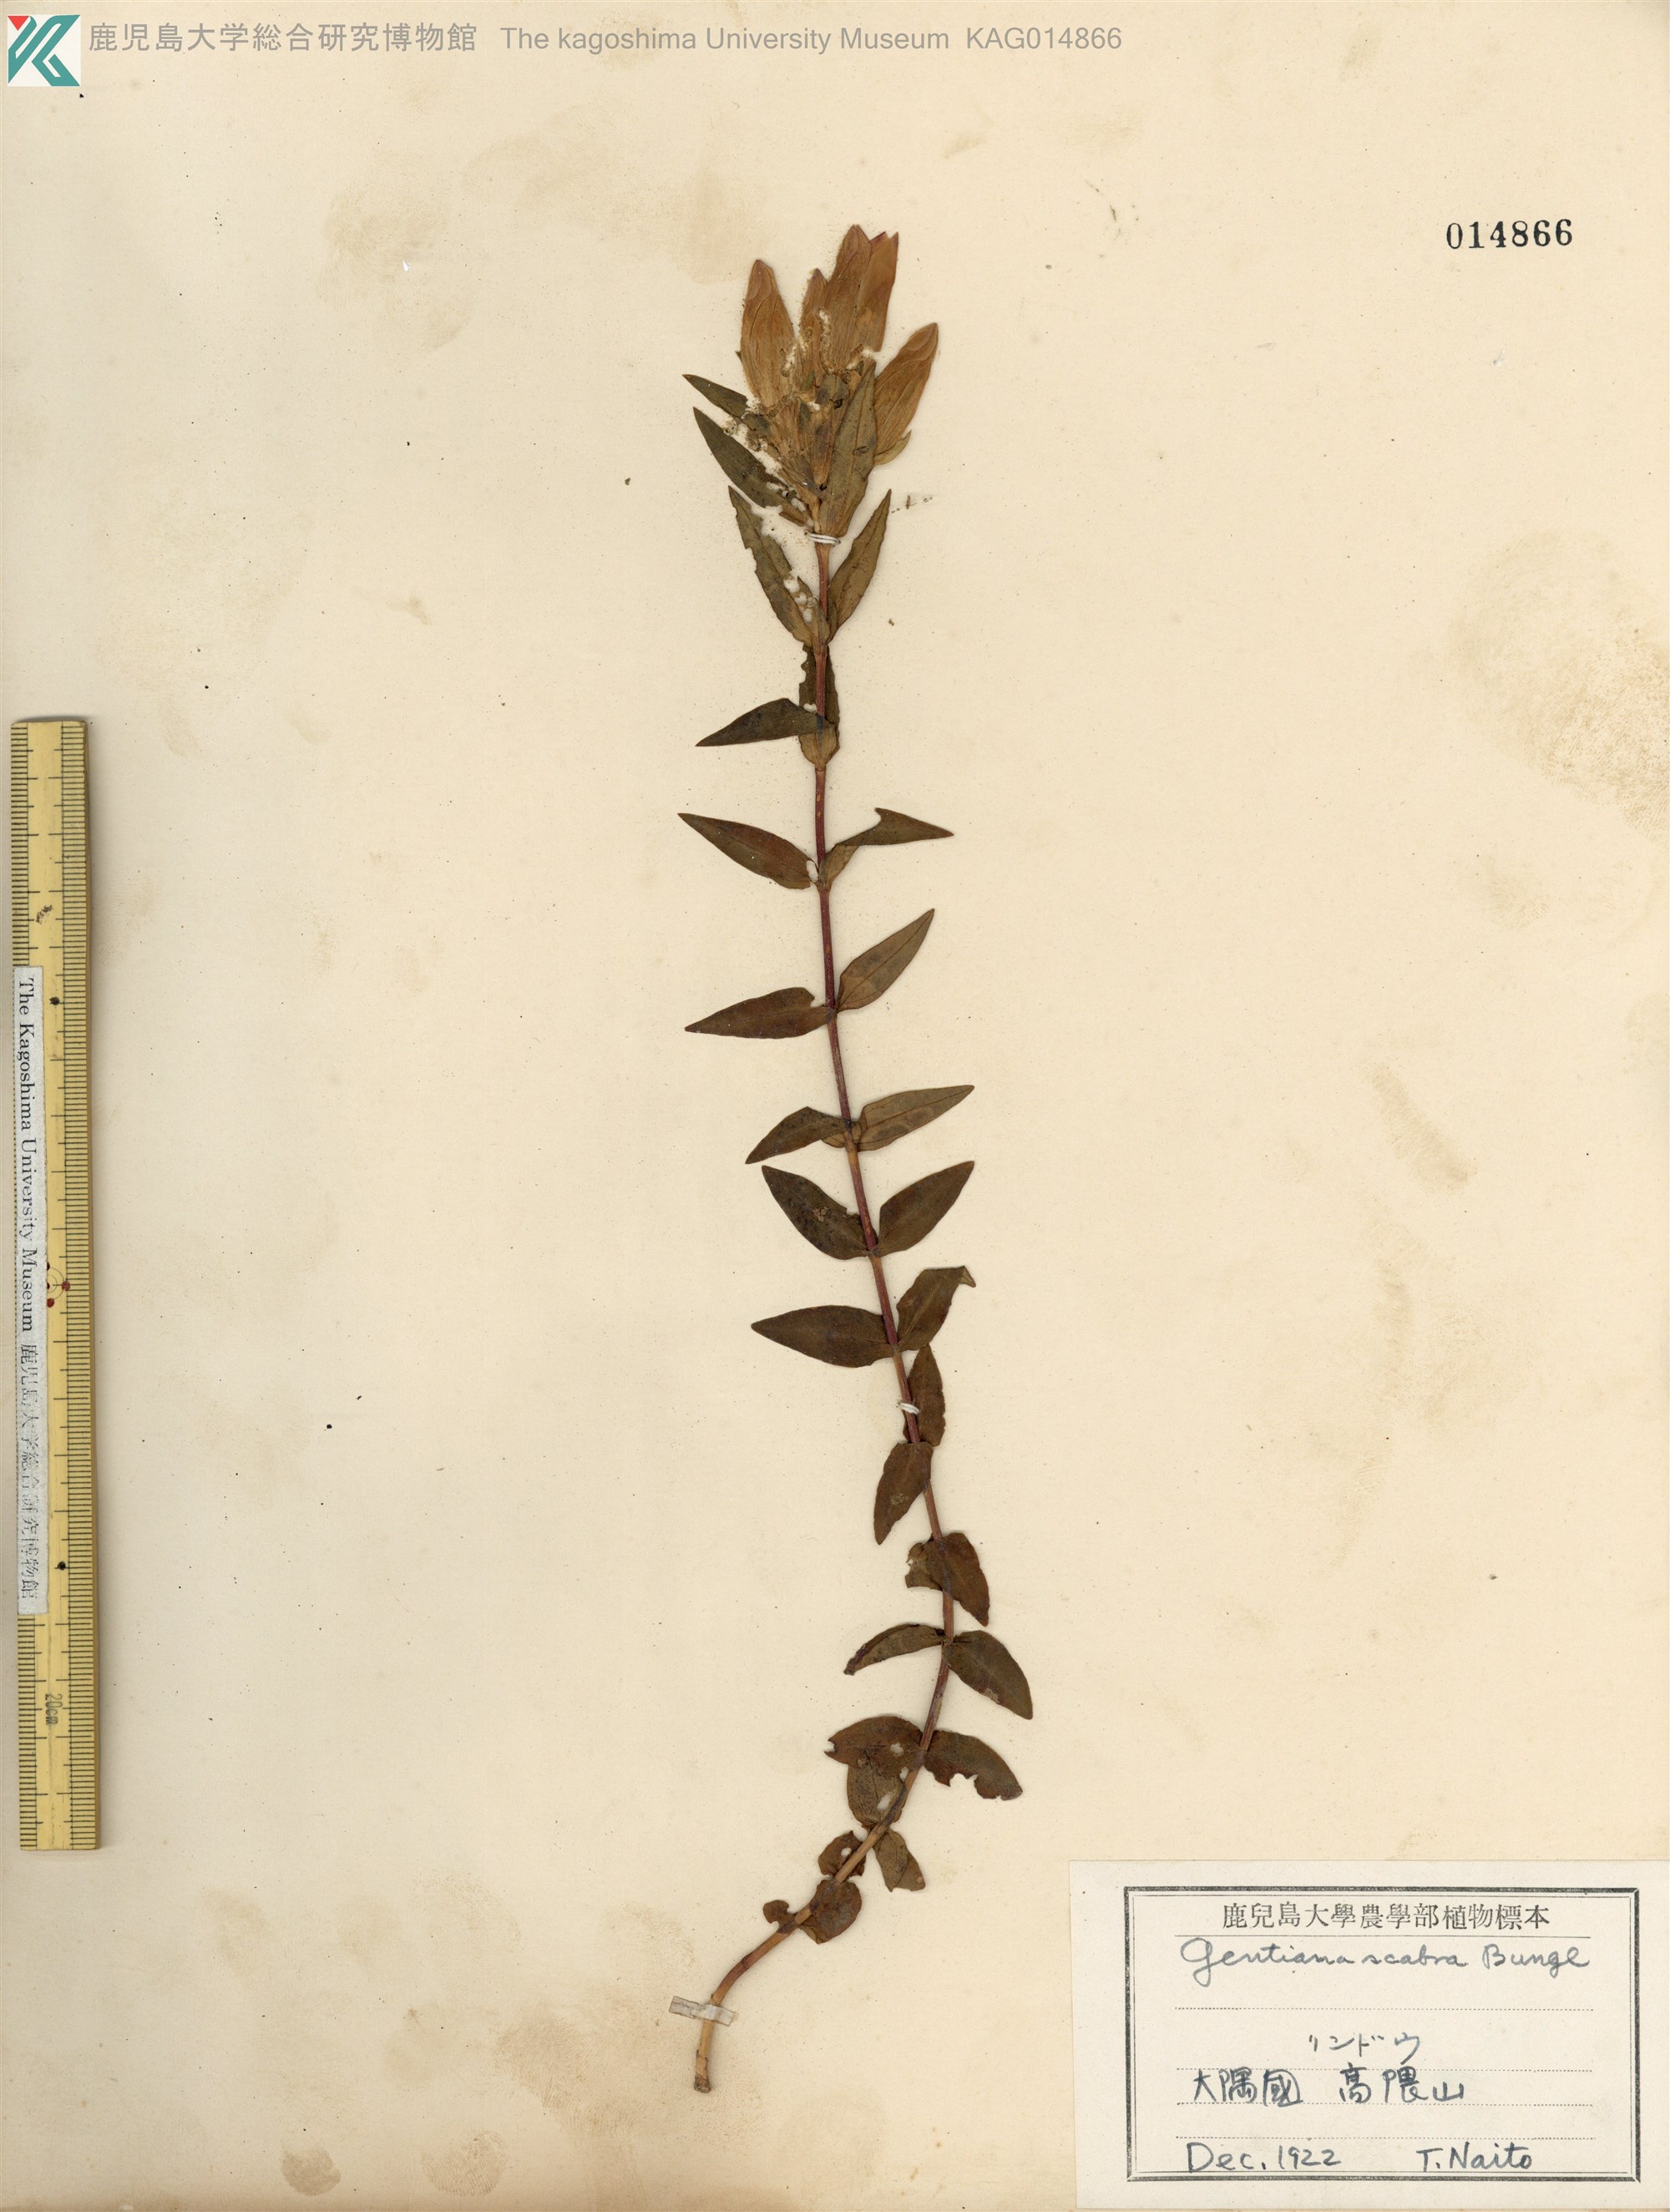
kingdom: Plantae
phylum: Tracheophyta
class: Magnoliopsida
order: Gentianales
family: Gentianaceae
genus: Gentiana
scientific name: Gentiana scabra
